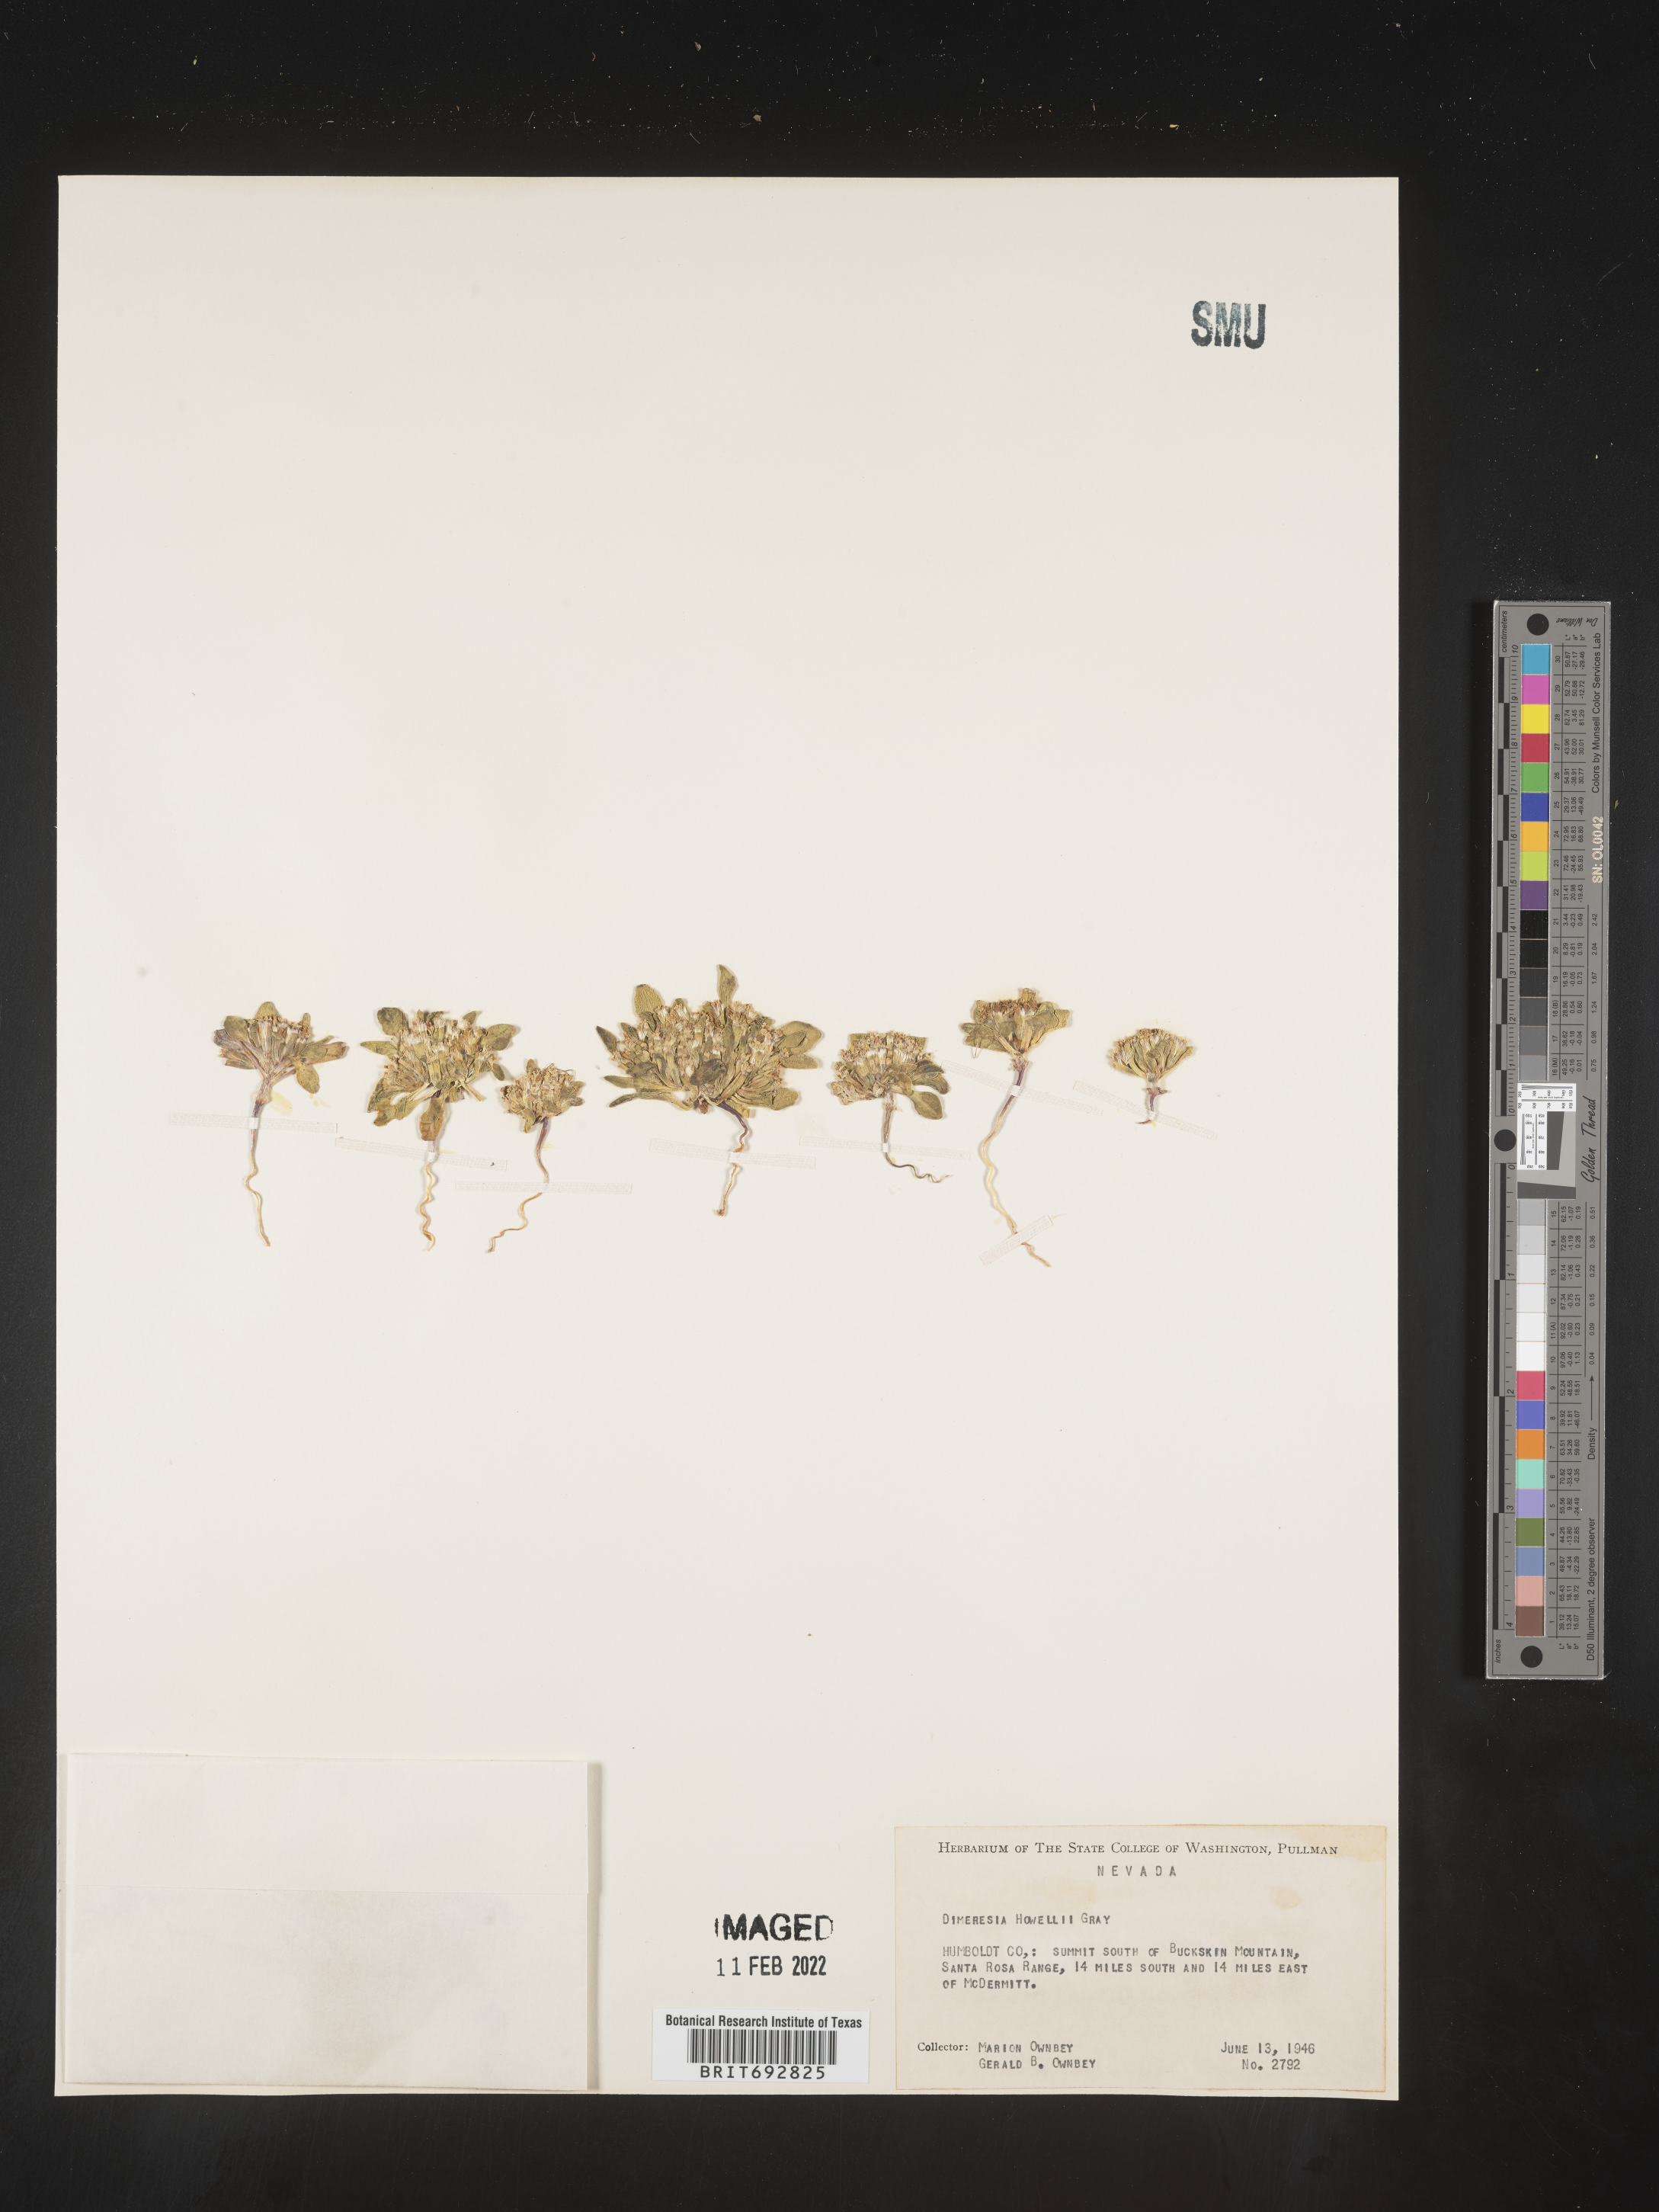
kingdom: Plantae
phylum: Tracheophyta
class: Magnoliopsida
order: Asterales
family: Asteraceae
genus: Dimeresia
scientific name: Dimeresia
